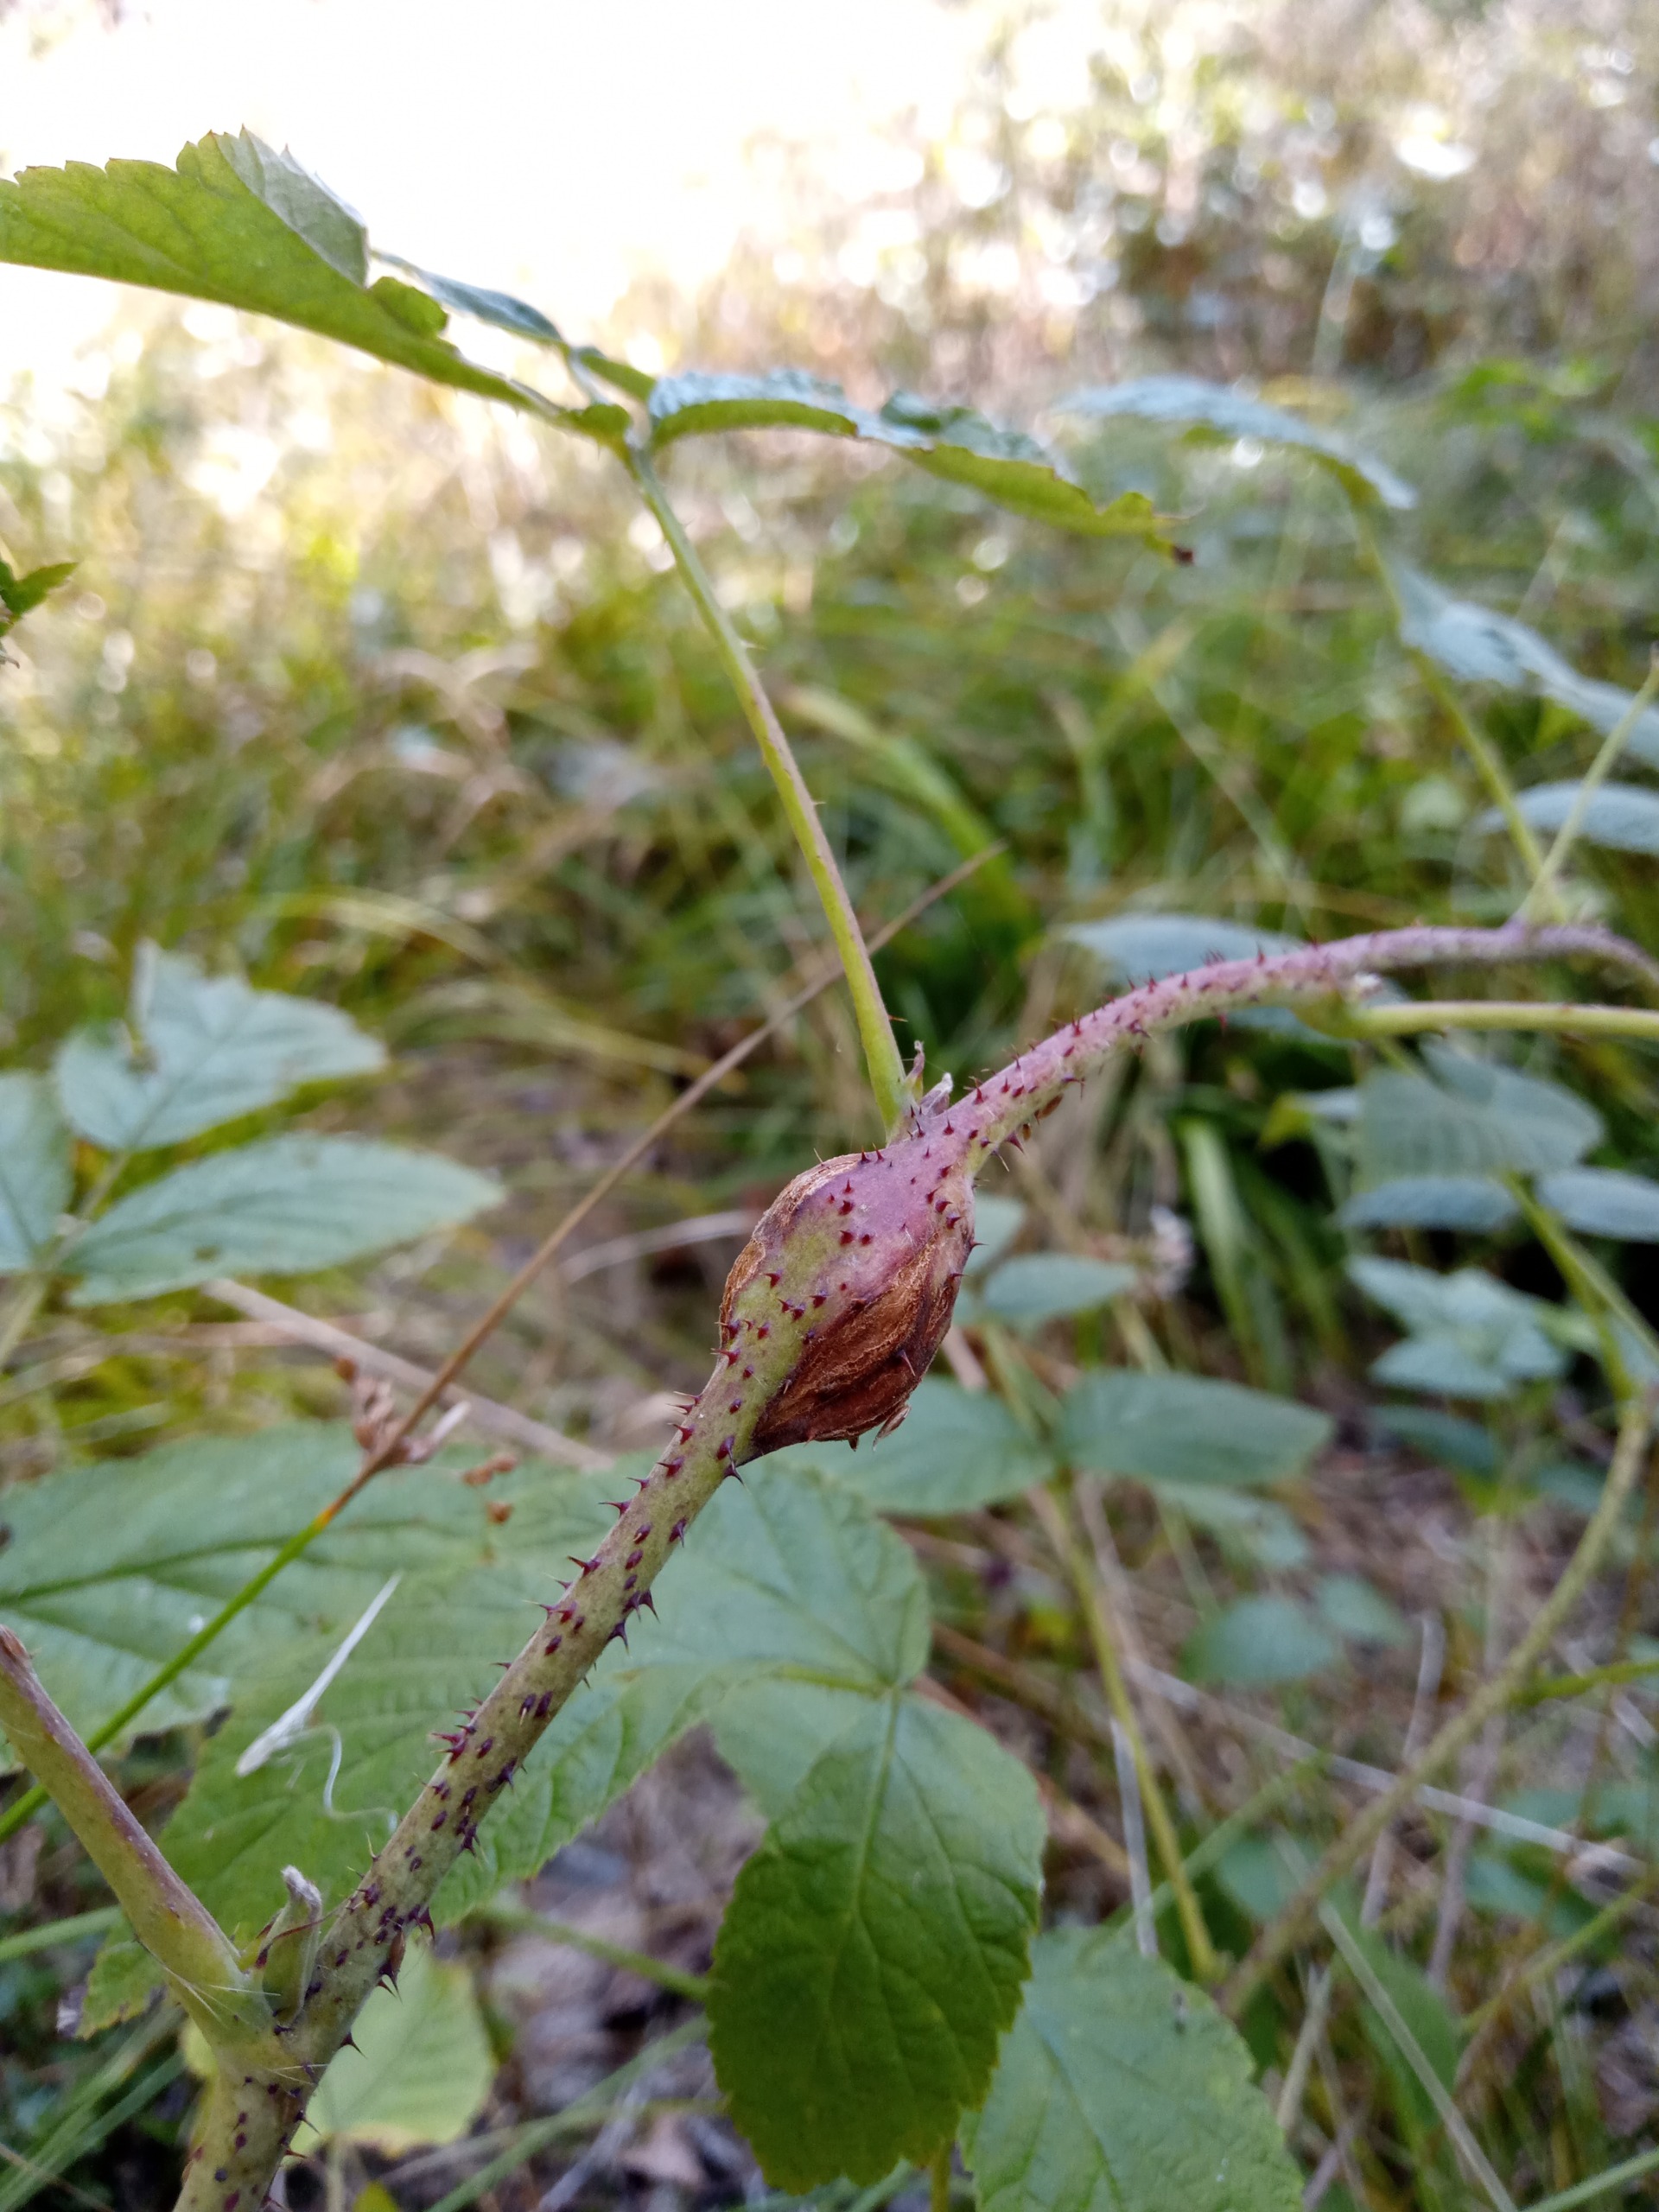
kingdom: Animalia
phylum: Arthropoda
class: Insecta
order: Diptera
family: Cecidomyiidae
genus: Lasioptera
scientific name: Lasioptera rubi
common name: Hindbærstængelgalmyg
